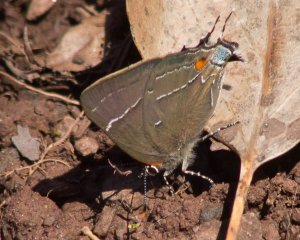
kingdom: Animalia
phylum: Arthropoda
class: Insecta
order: Lepidoptera
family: Lycaenidae
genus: Parrhasius
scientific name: Parrhasius m-album
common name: White-m Hairstreak
